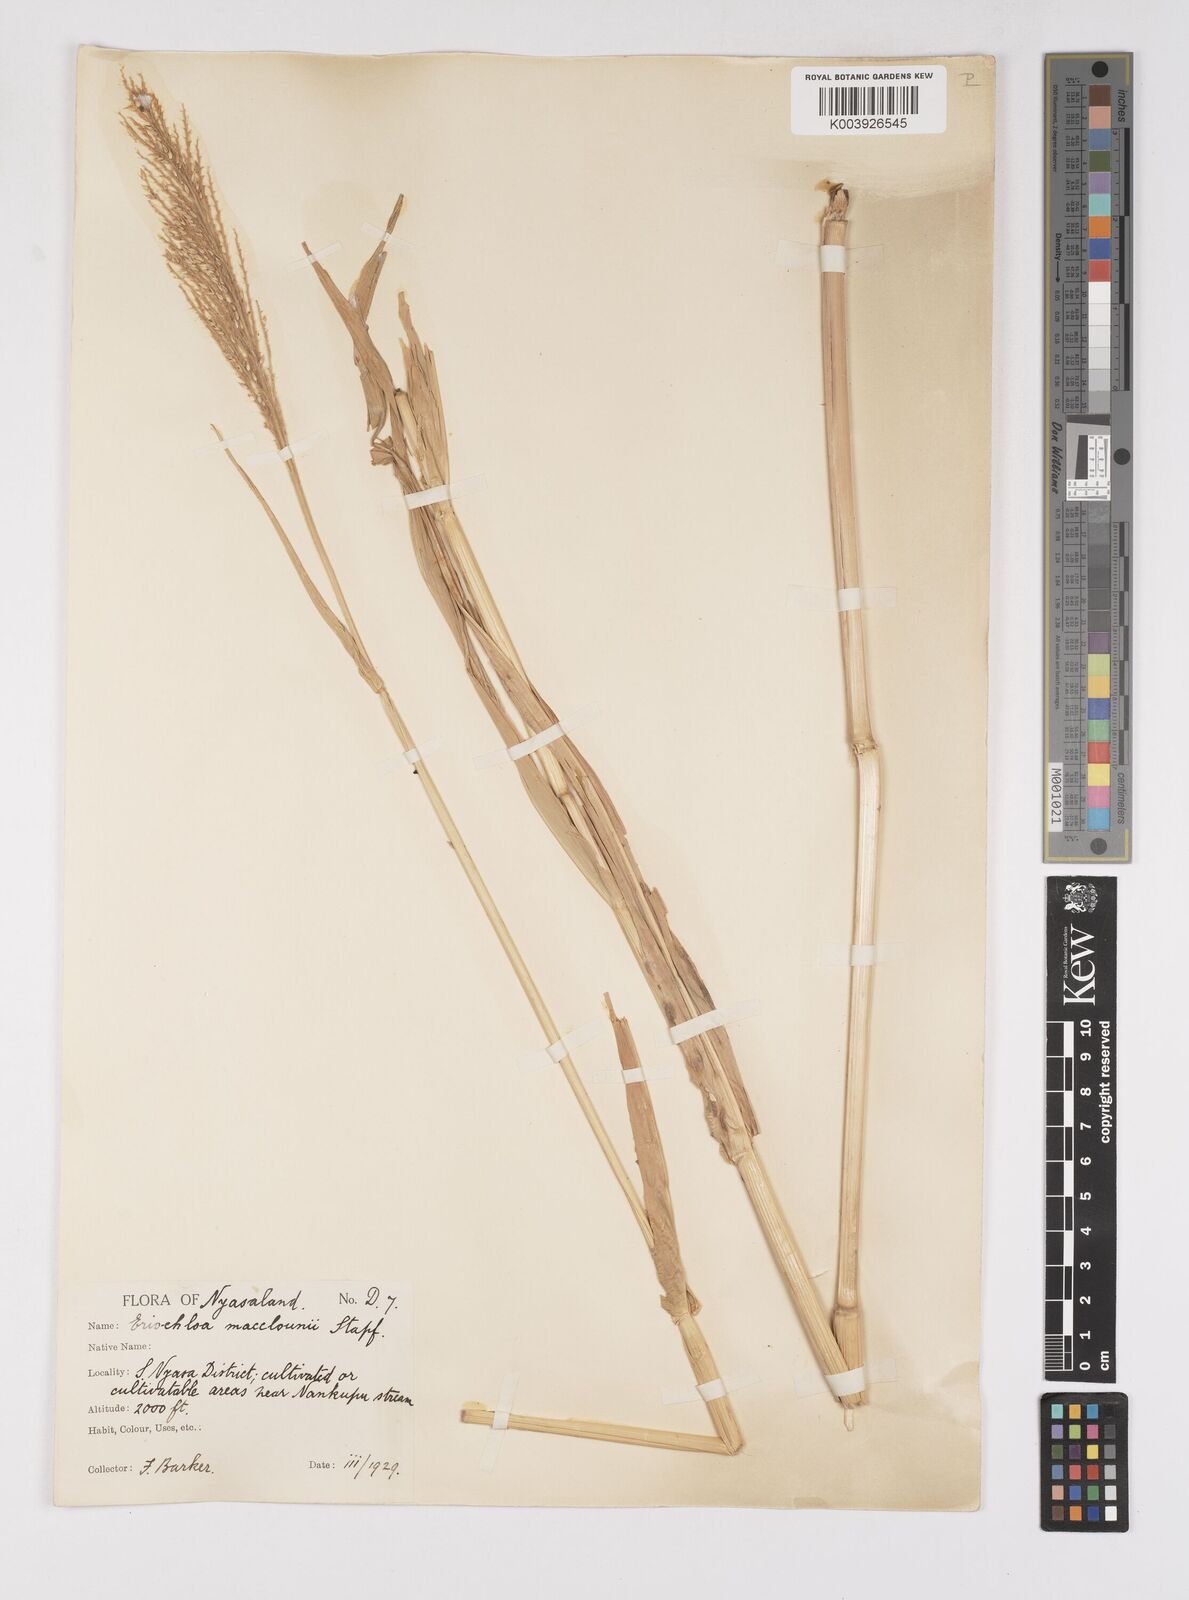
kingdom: Plantae
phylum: Tracheophyta
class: Liliopsida
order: Poales
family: Poaceae
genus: Eriochloa
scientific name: Eriochloa macclounii
